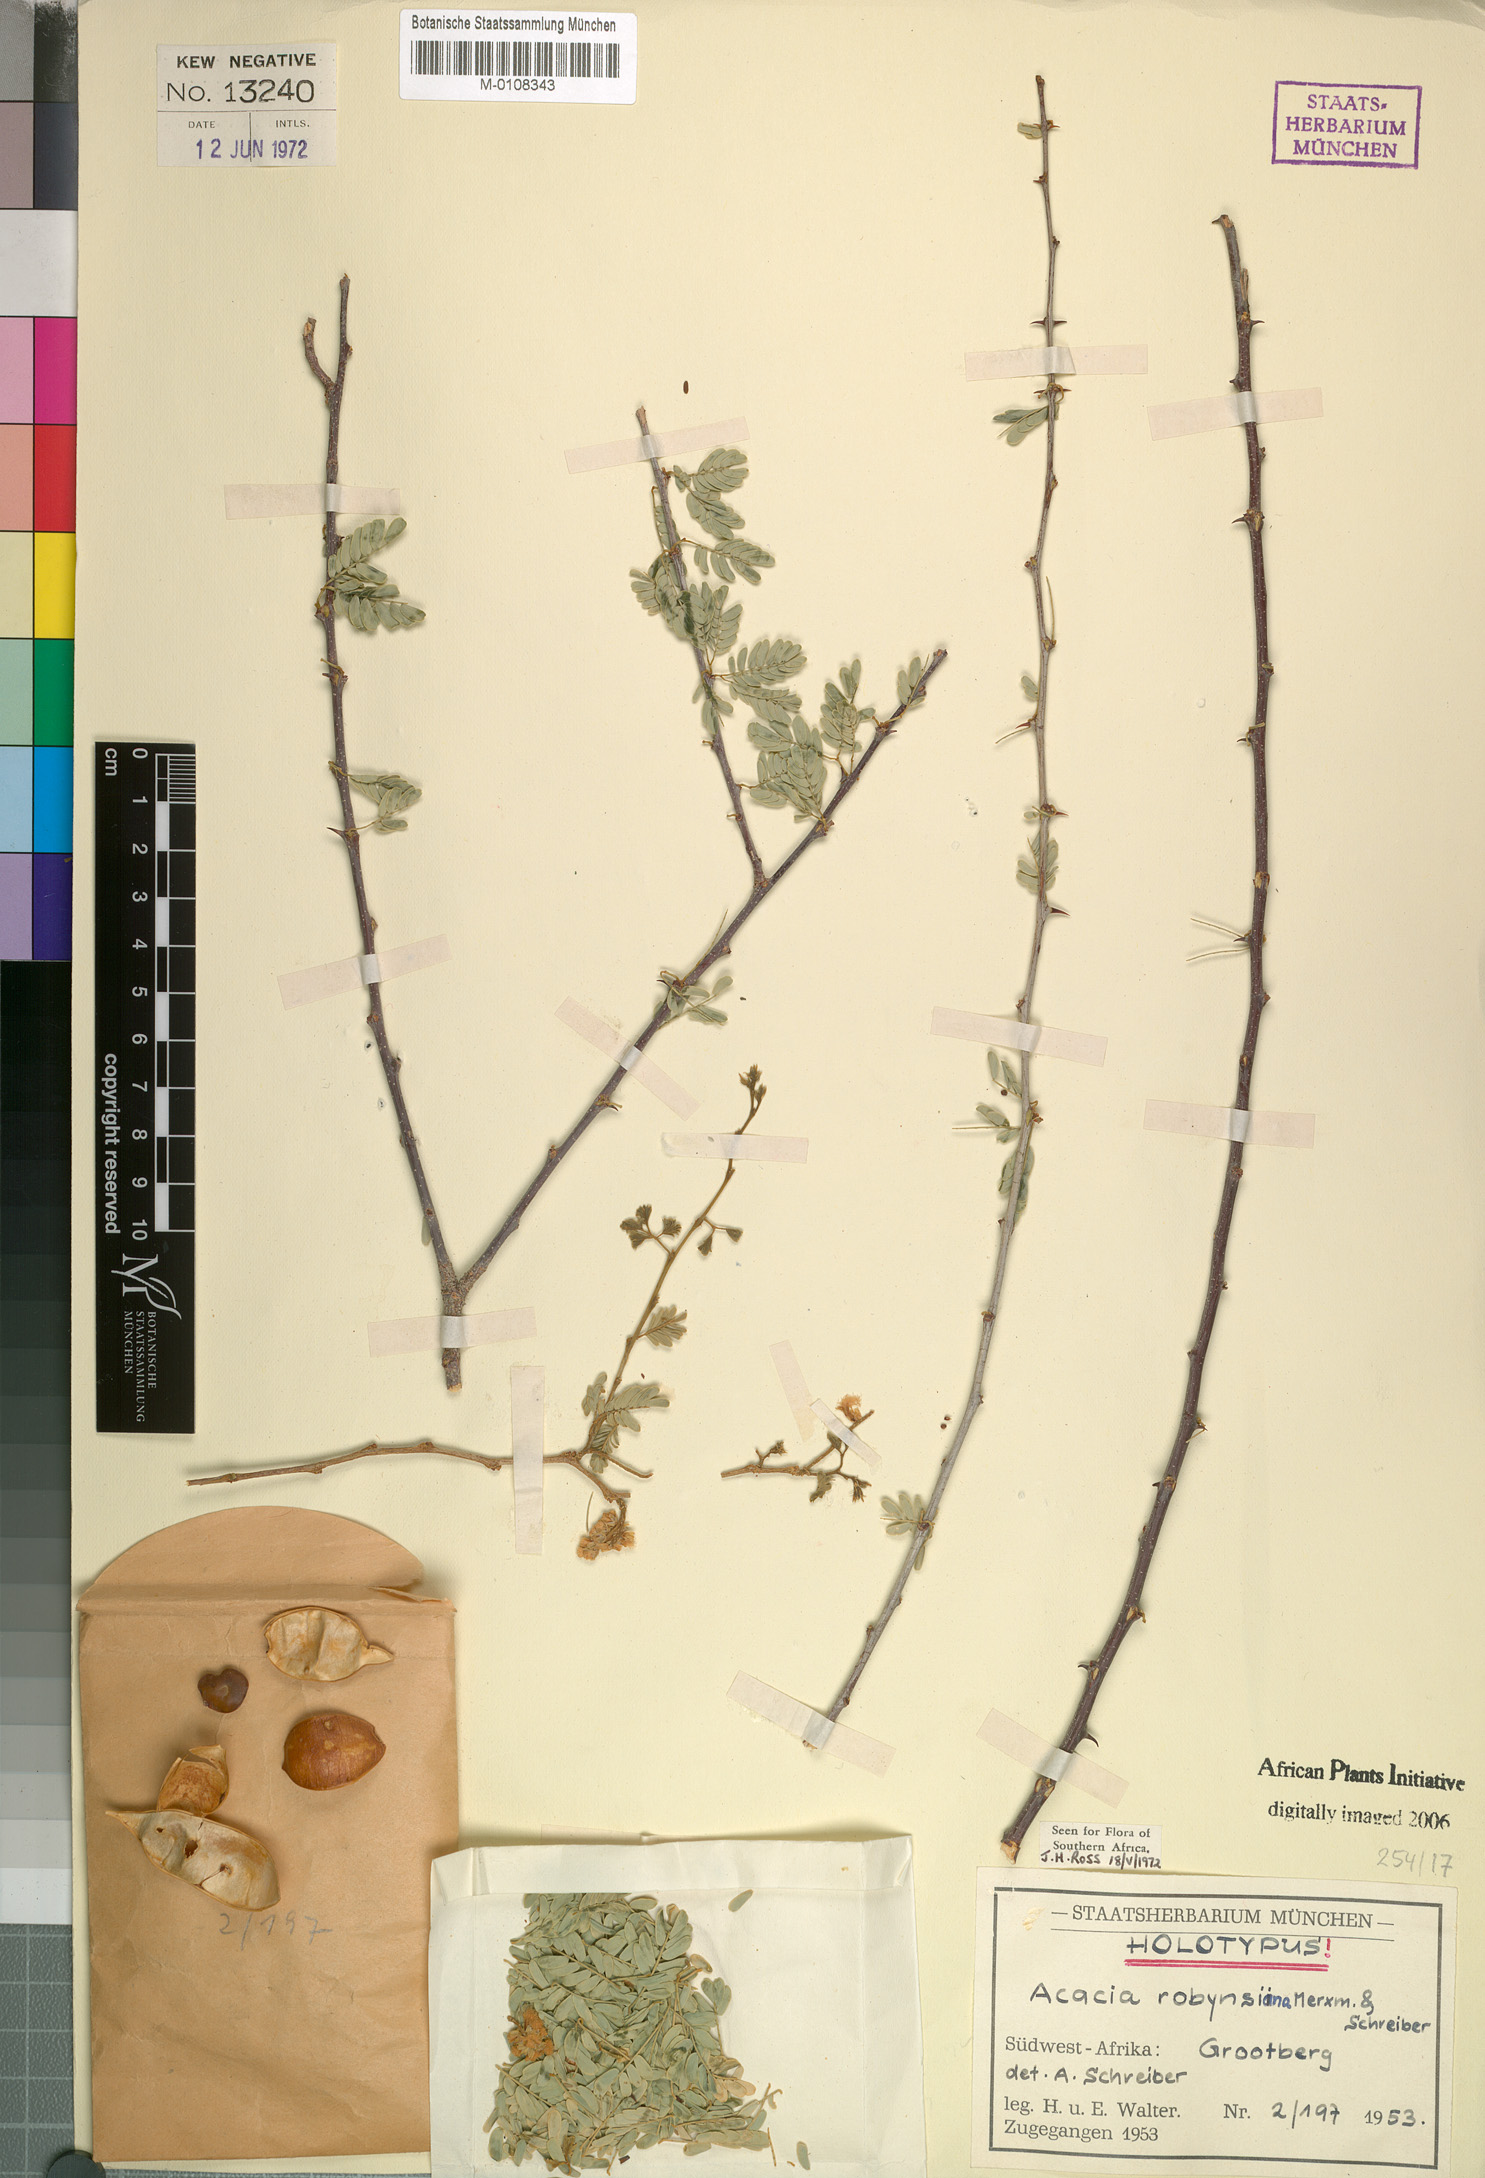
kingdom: Plantae
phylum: Tracheophyta
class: Magnoliopsida
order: Fabales
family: Fabaceae
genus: Senegalia
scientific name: Senegalia robynsiana
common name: Whip stick acacia
